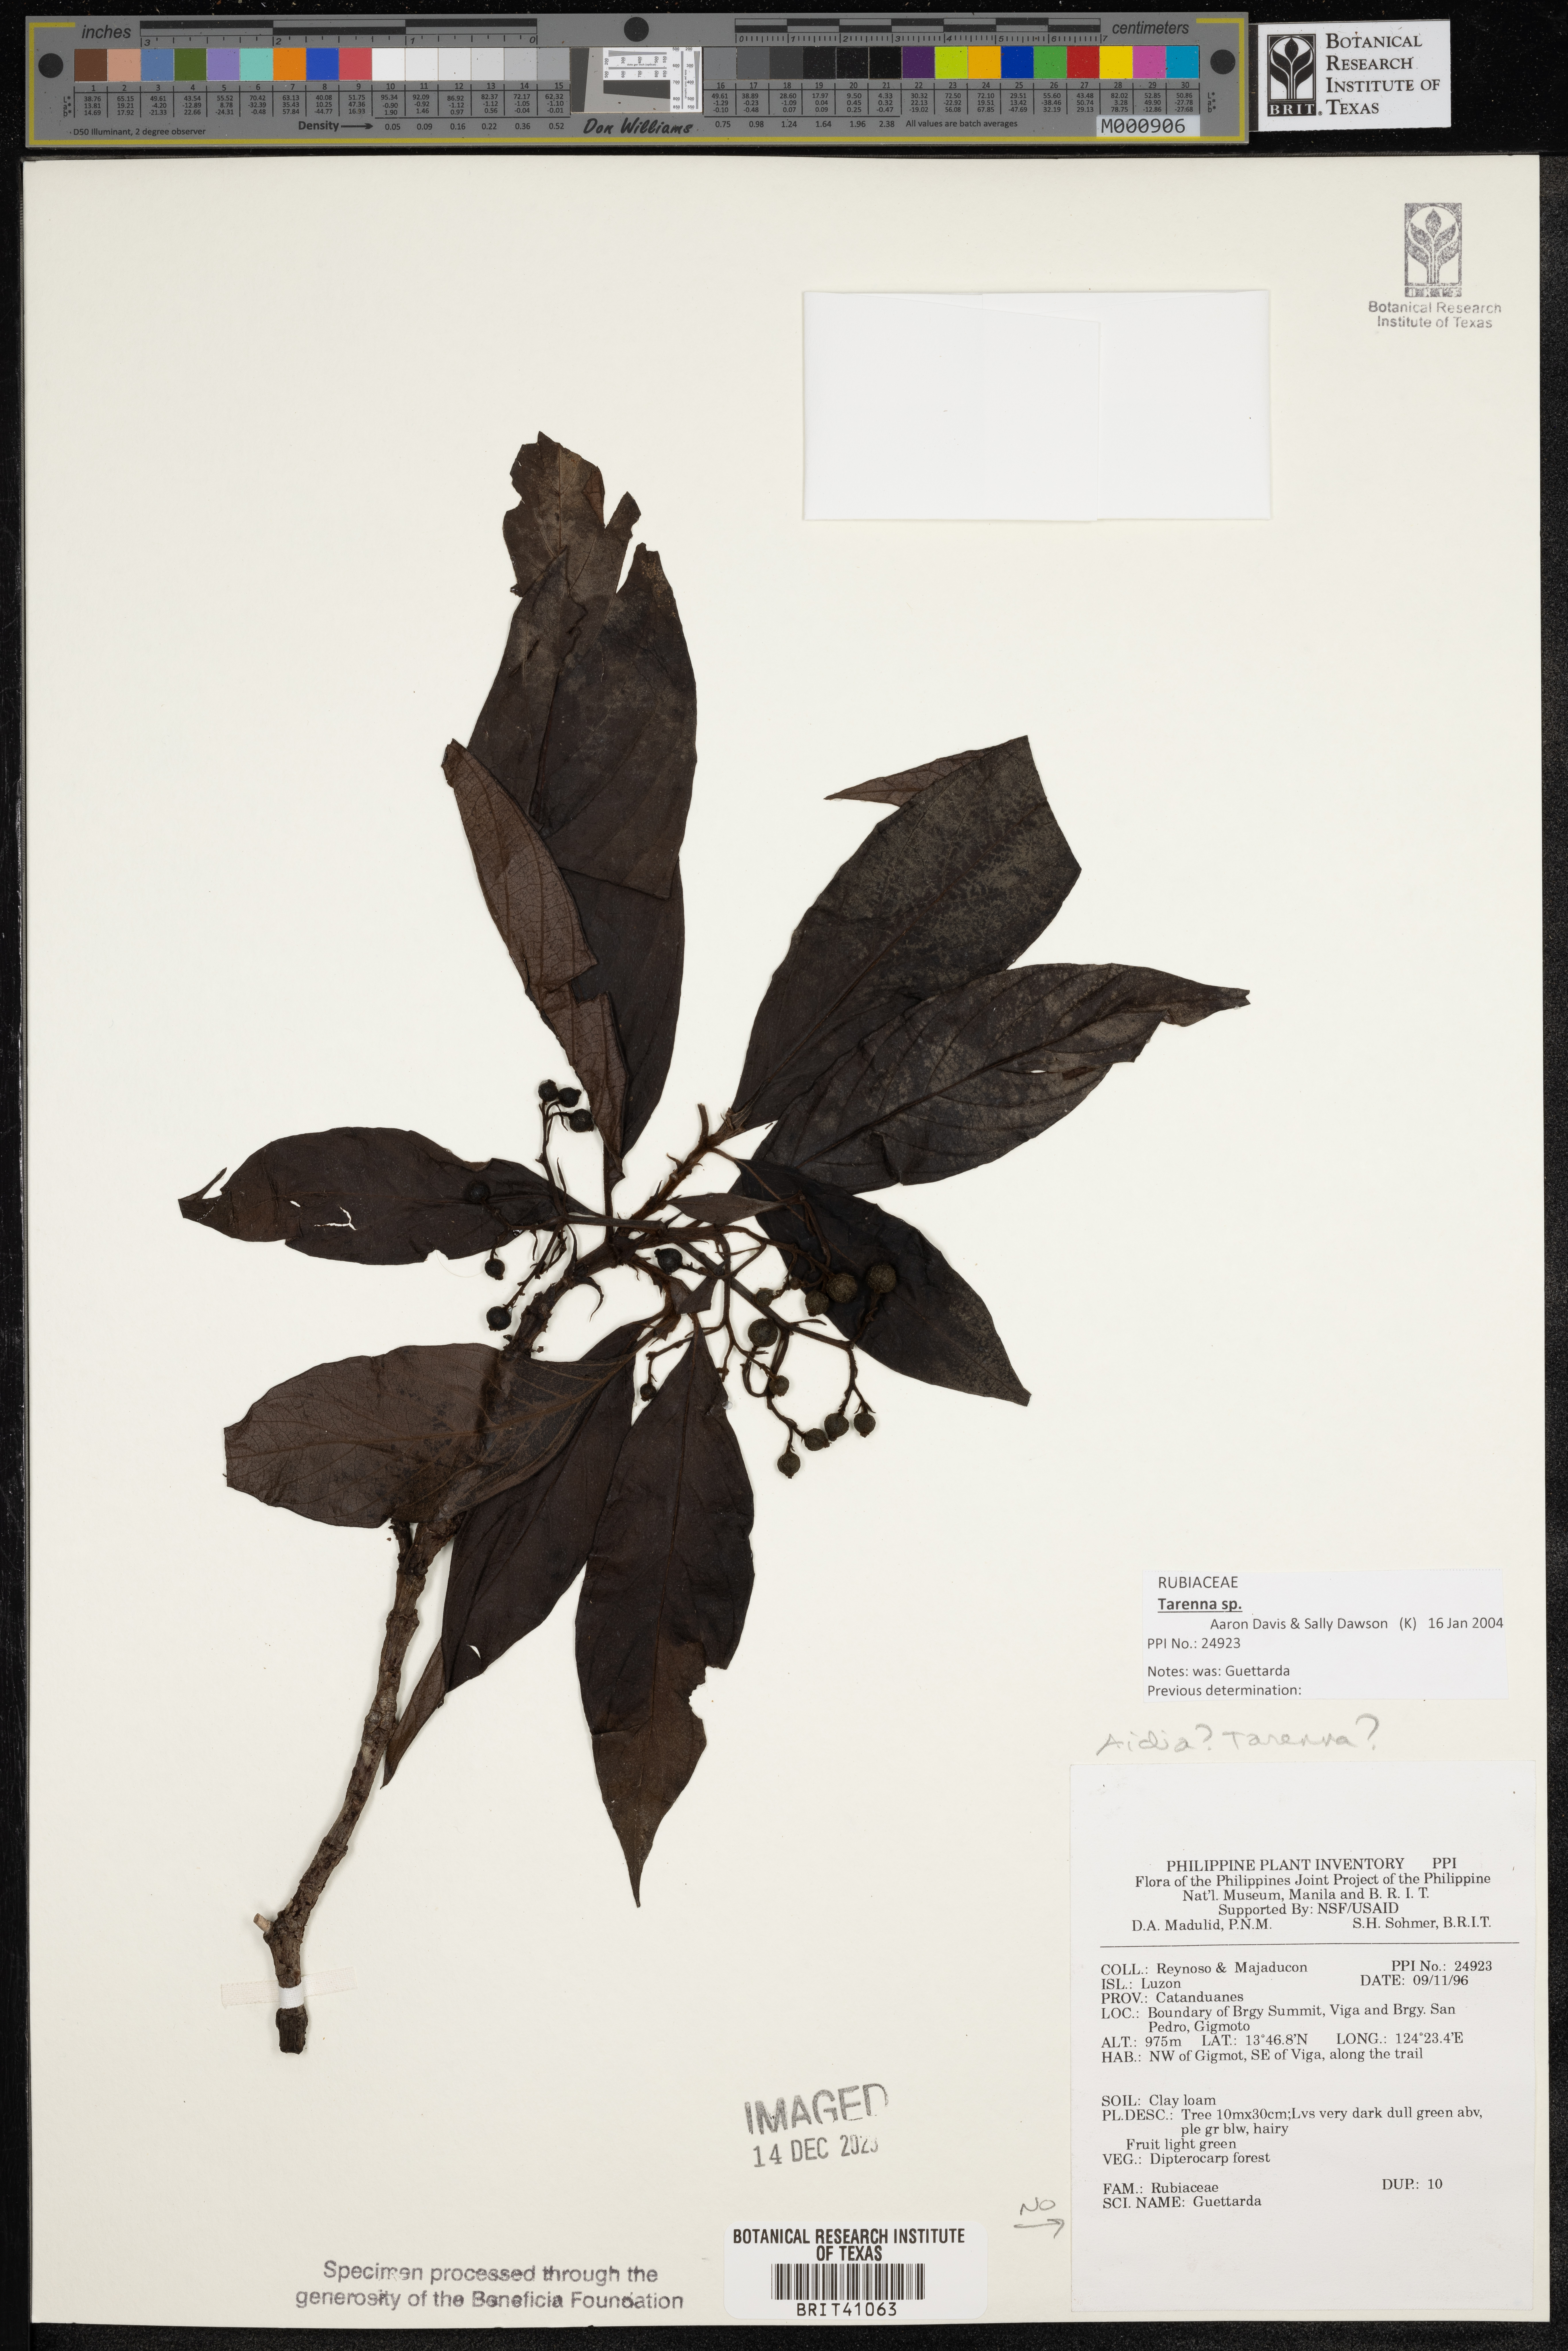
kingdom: Plantae
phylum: Tracheophyta
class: Magnoliopsida
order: Gentianales
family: Rubiaceae
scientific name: Rubiaceae
